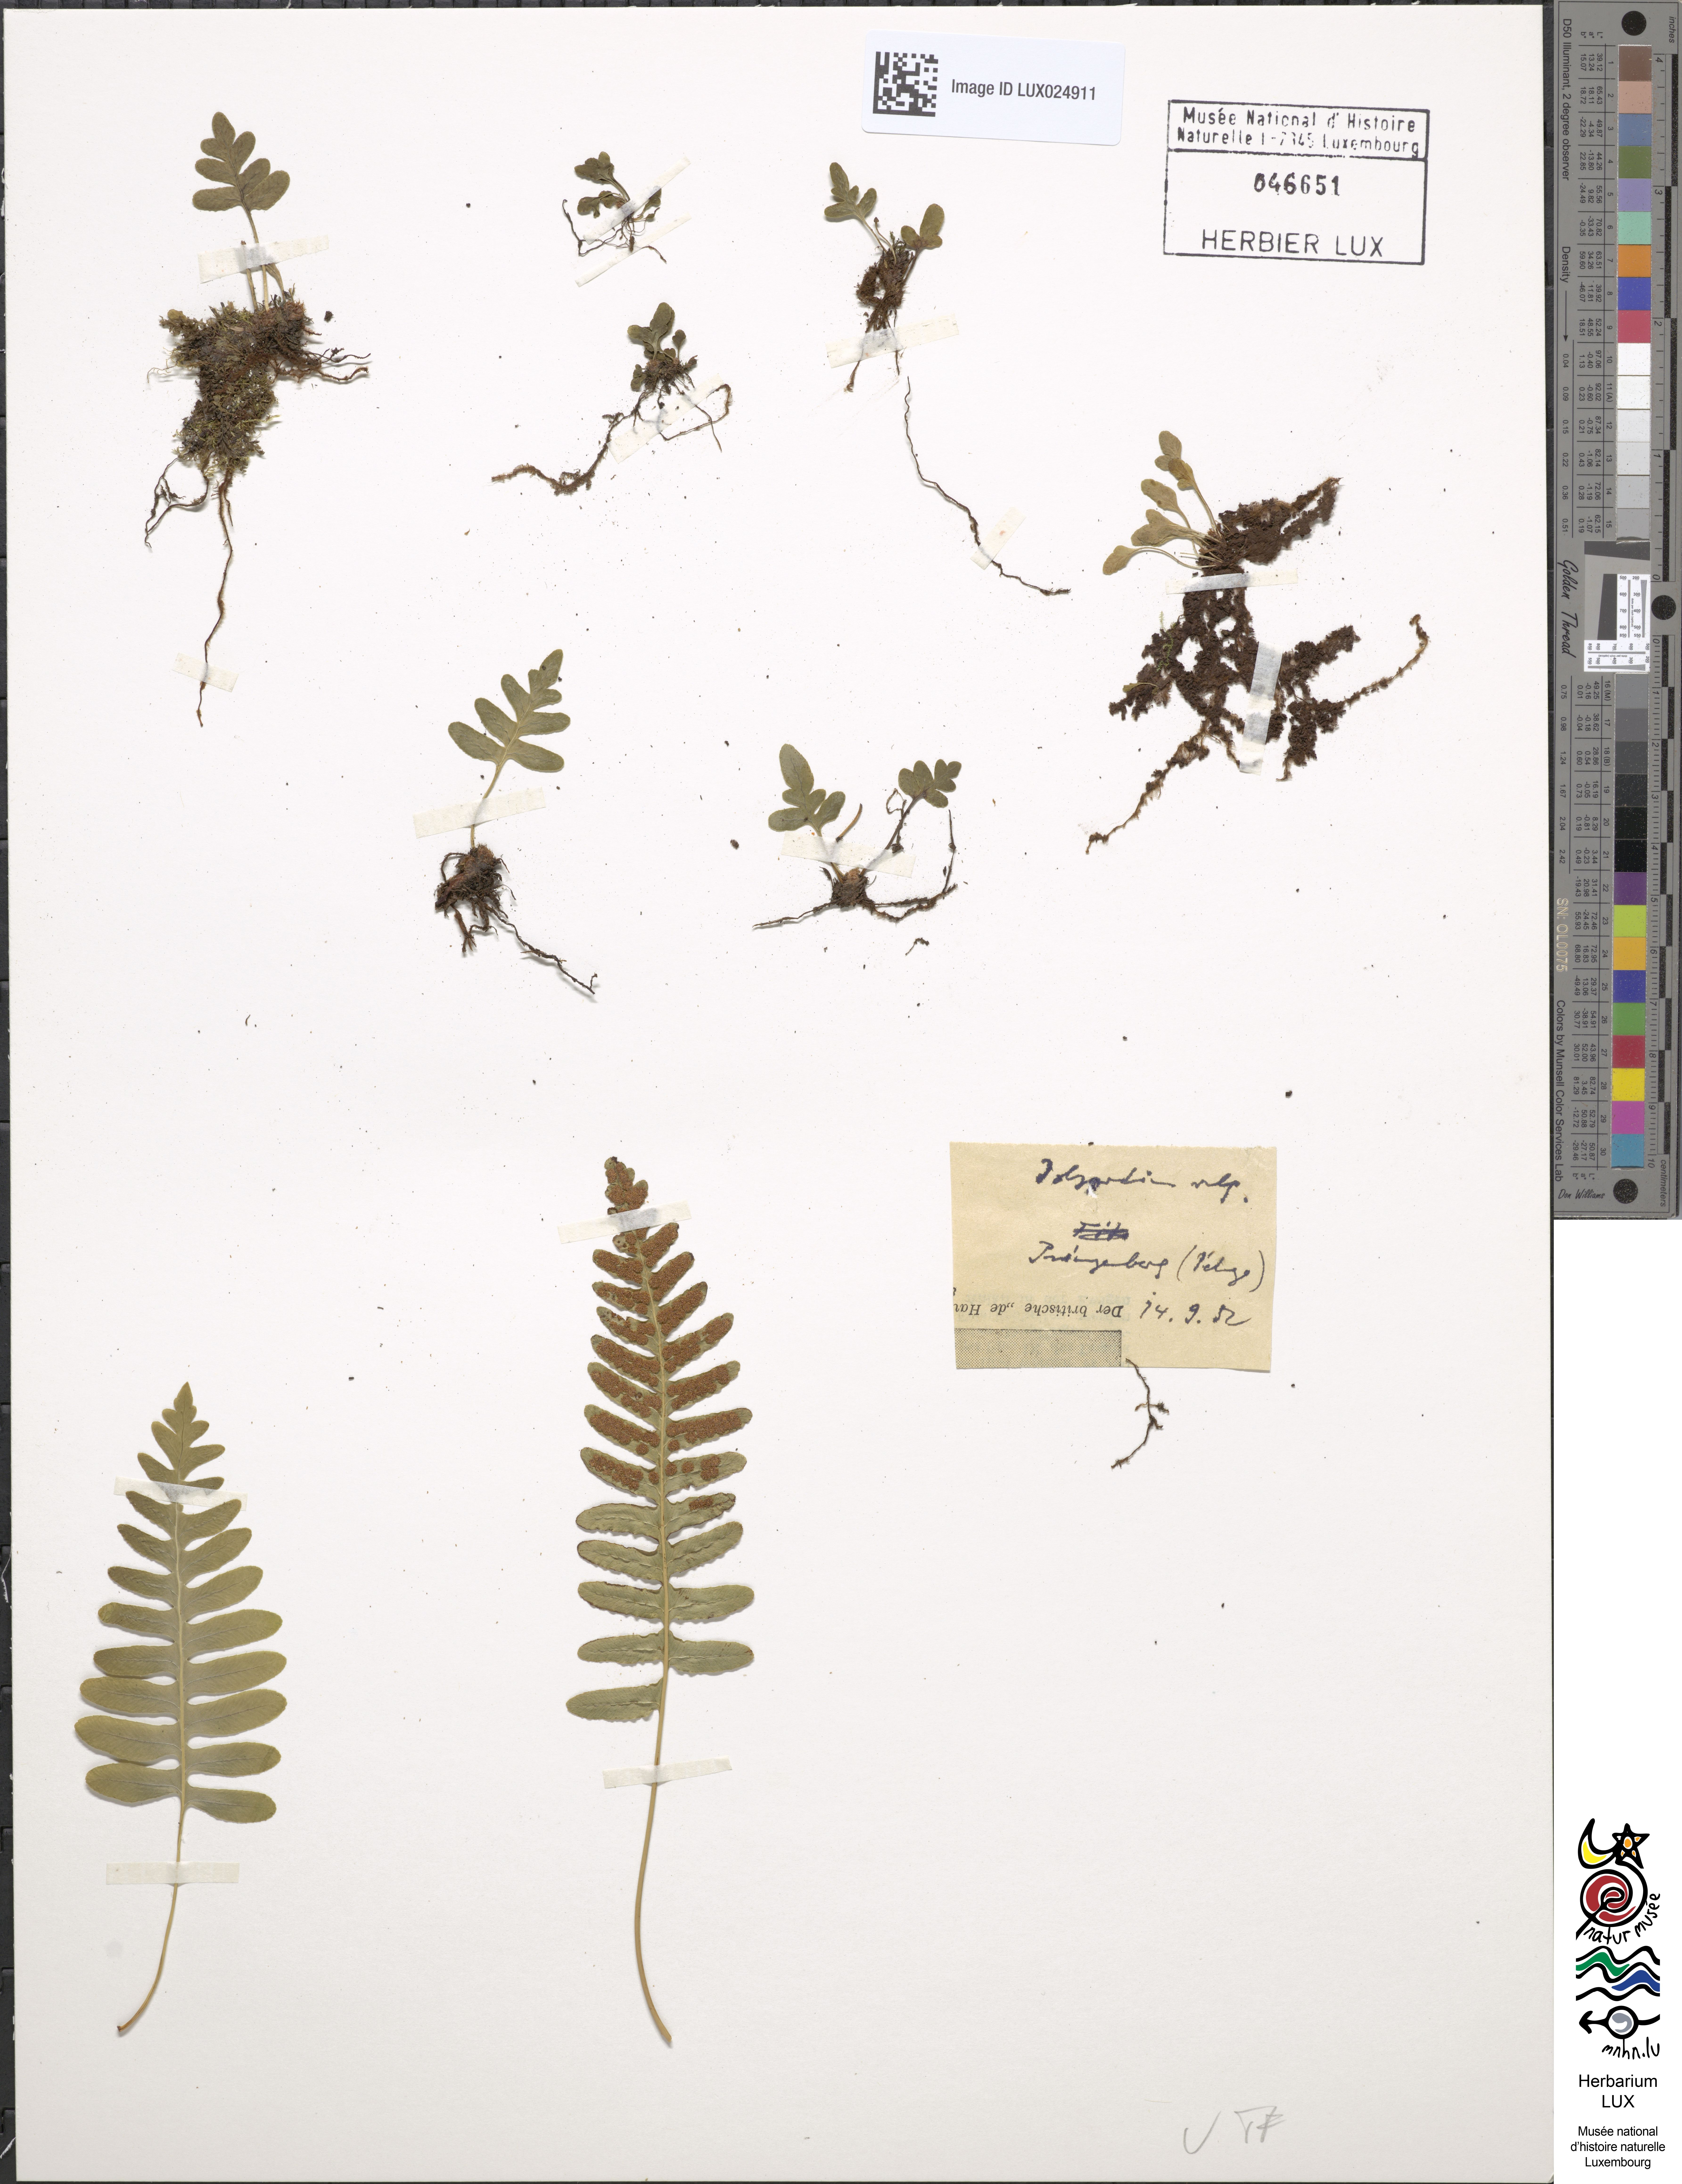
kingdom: Plantae
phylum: Tracheophyta
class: Polypodiopsida
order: Polypodiales
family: Polypodiaceae
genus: Polypodium
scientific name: Polypodium vulgare
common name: Common polypody
